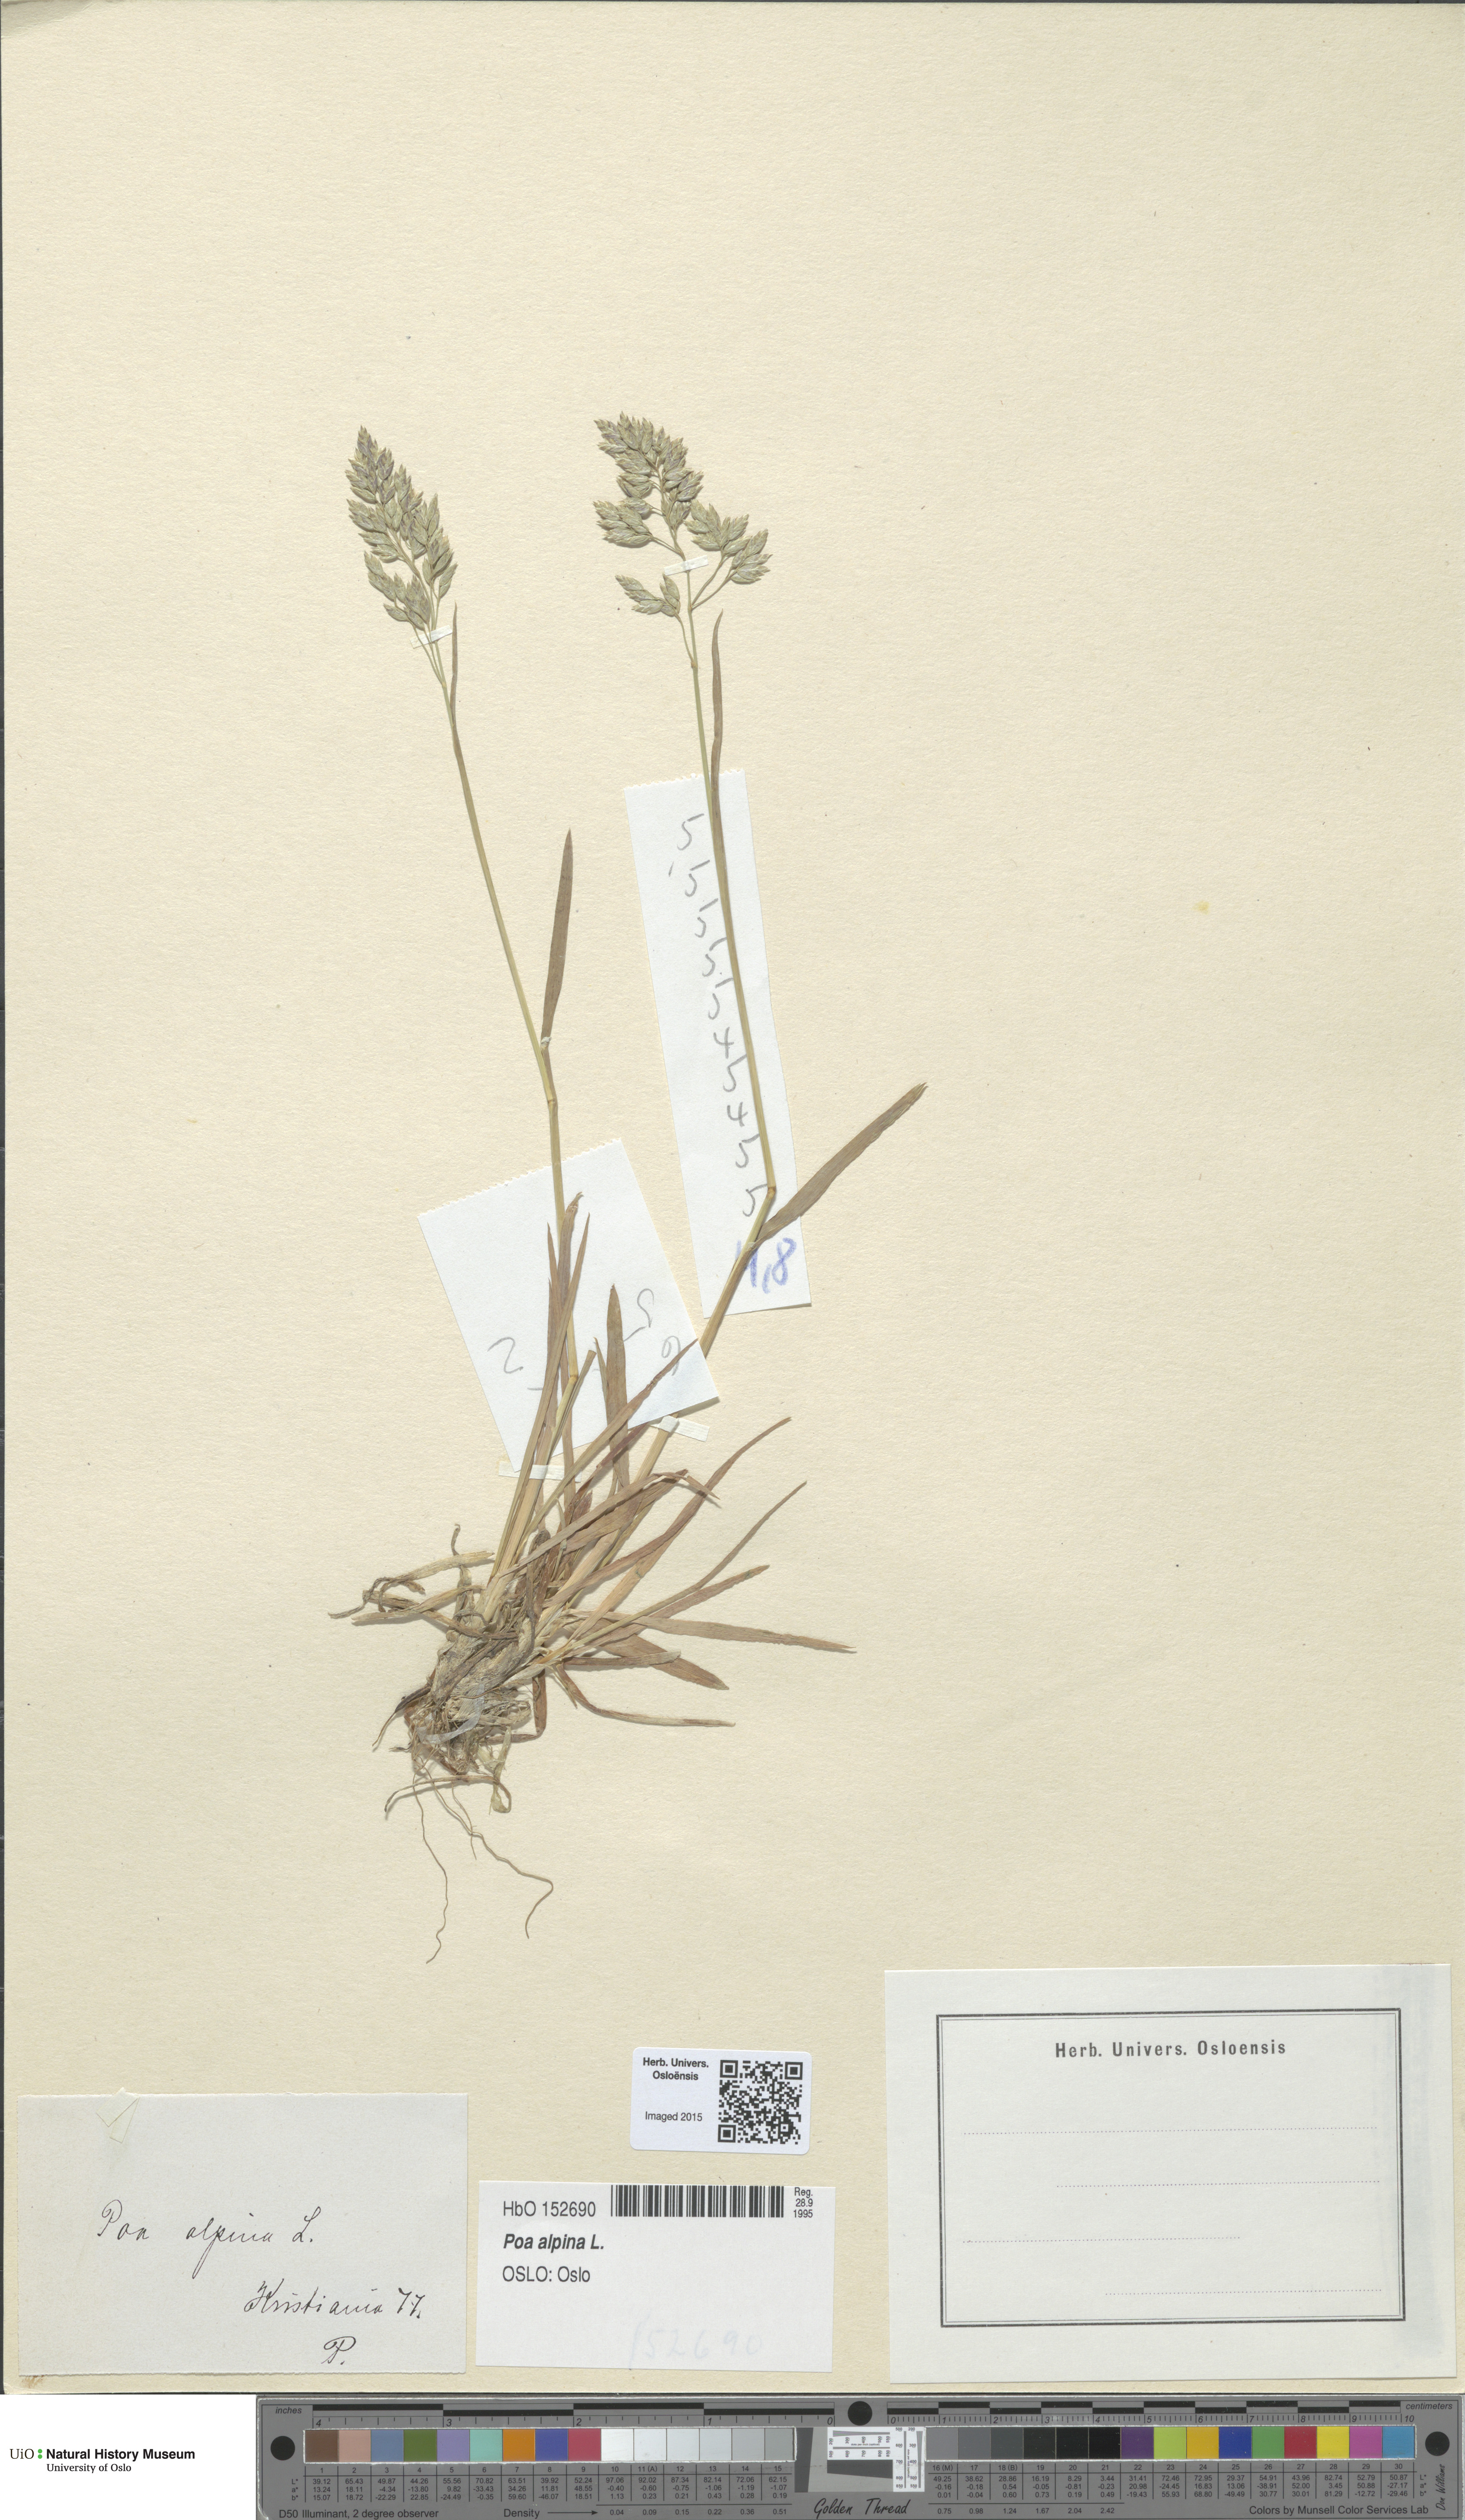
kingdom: Plantae
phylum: Tracheophyta
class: Liliopsida
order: Poales
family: Poaceae
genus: Poa
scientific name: Poa alpina
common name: Alpine bluegrass
